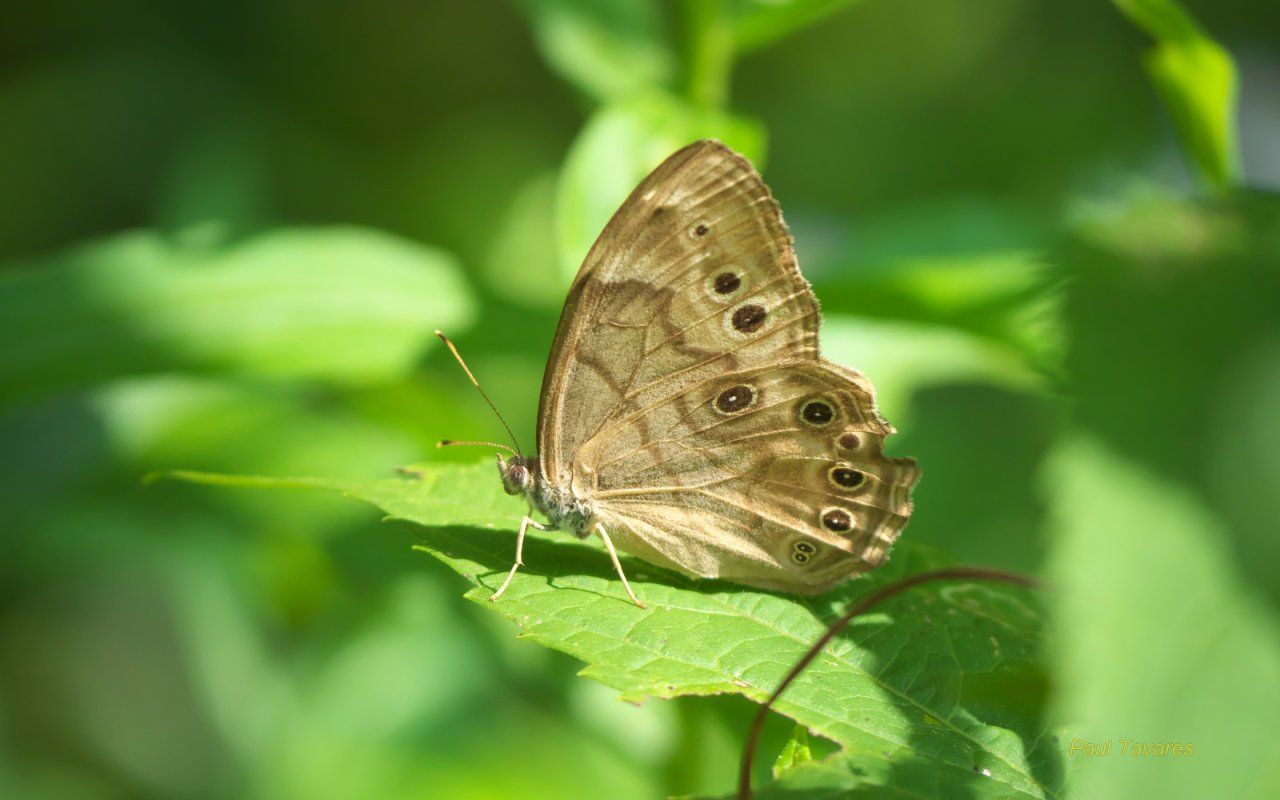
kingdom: Animalia
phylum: Arthropoda
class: Insecta
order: Lepidoptera
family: Nymphalidae
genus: Lethe
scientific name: Lethe anthedon
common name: Northern Pearly-Eye
